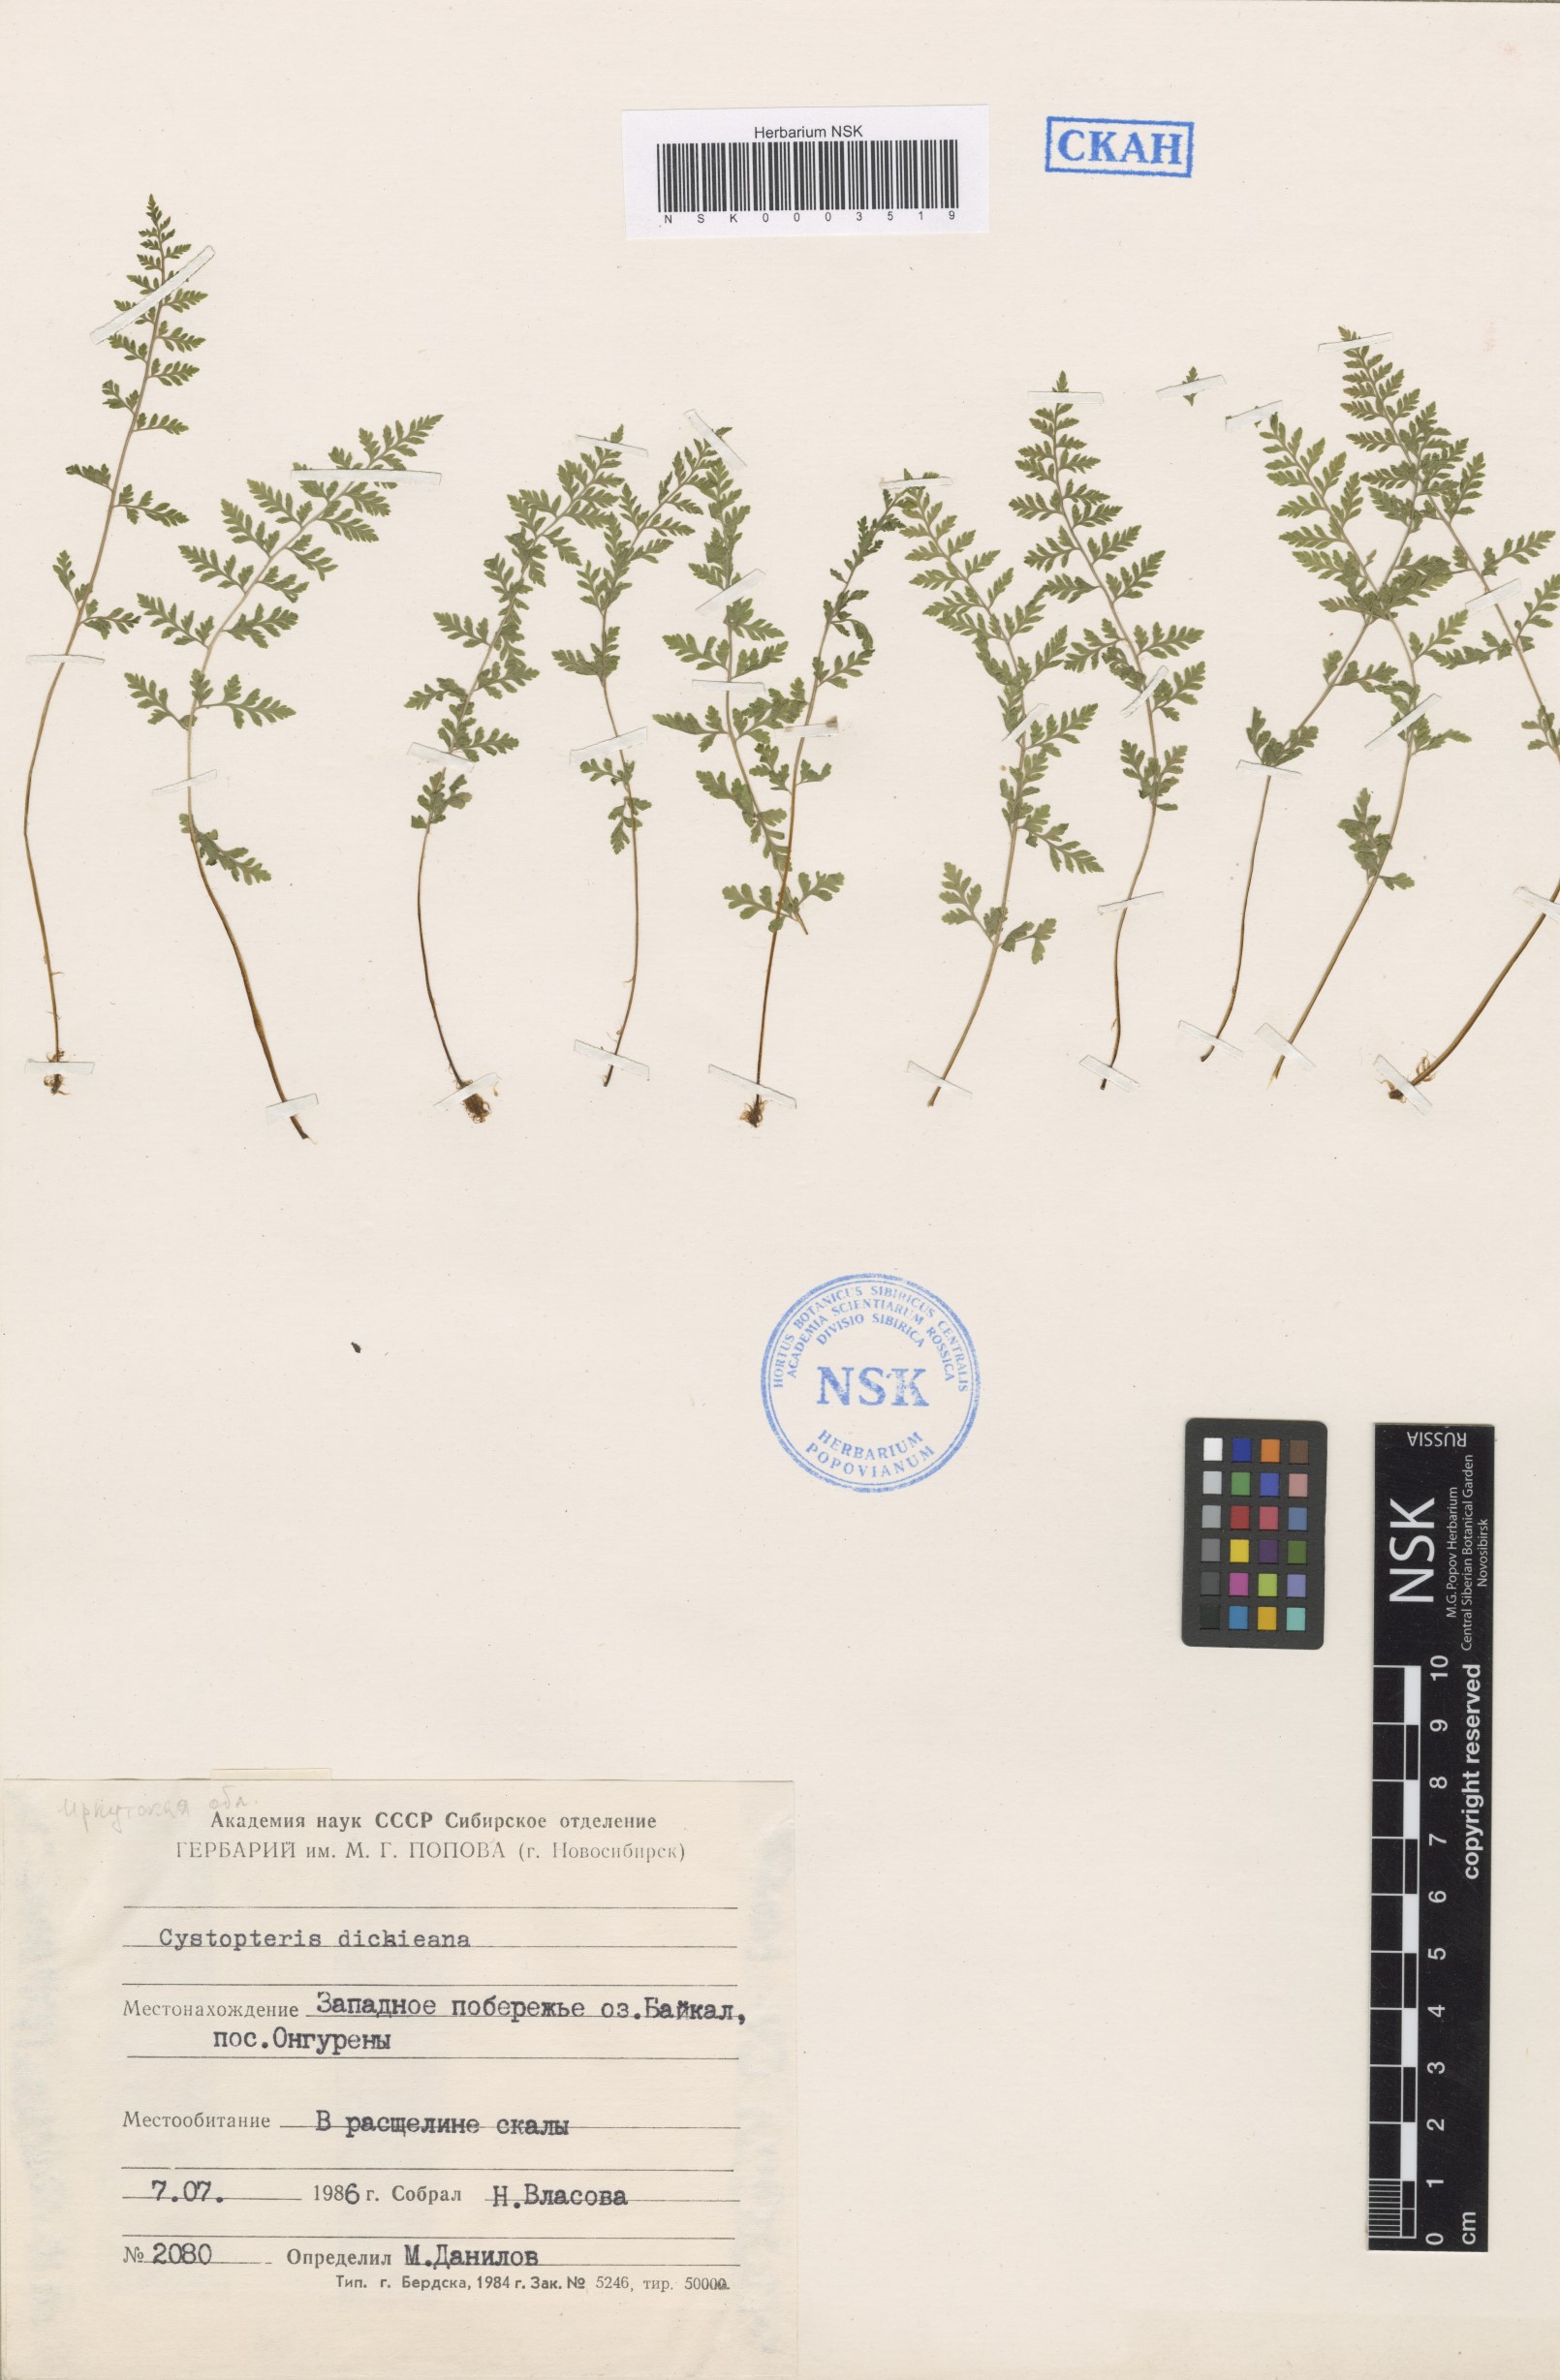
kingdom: Plantae
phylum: Tracheophyta
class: Polypodiopsida
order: Polypodiales
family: Cystopteridaceae
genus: Cystopteris
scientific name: Cystopteris dickieana
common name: Dickie's bladder-fern
